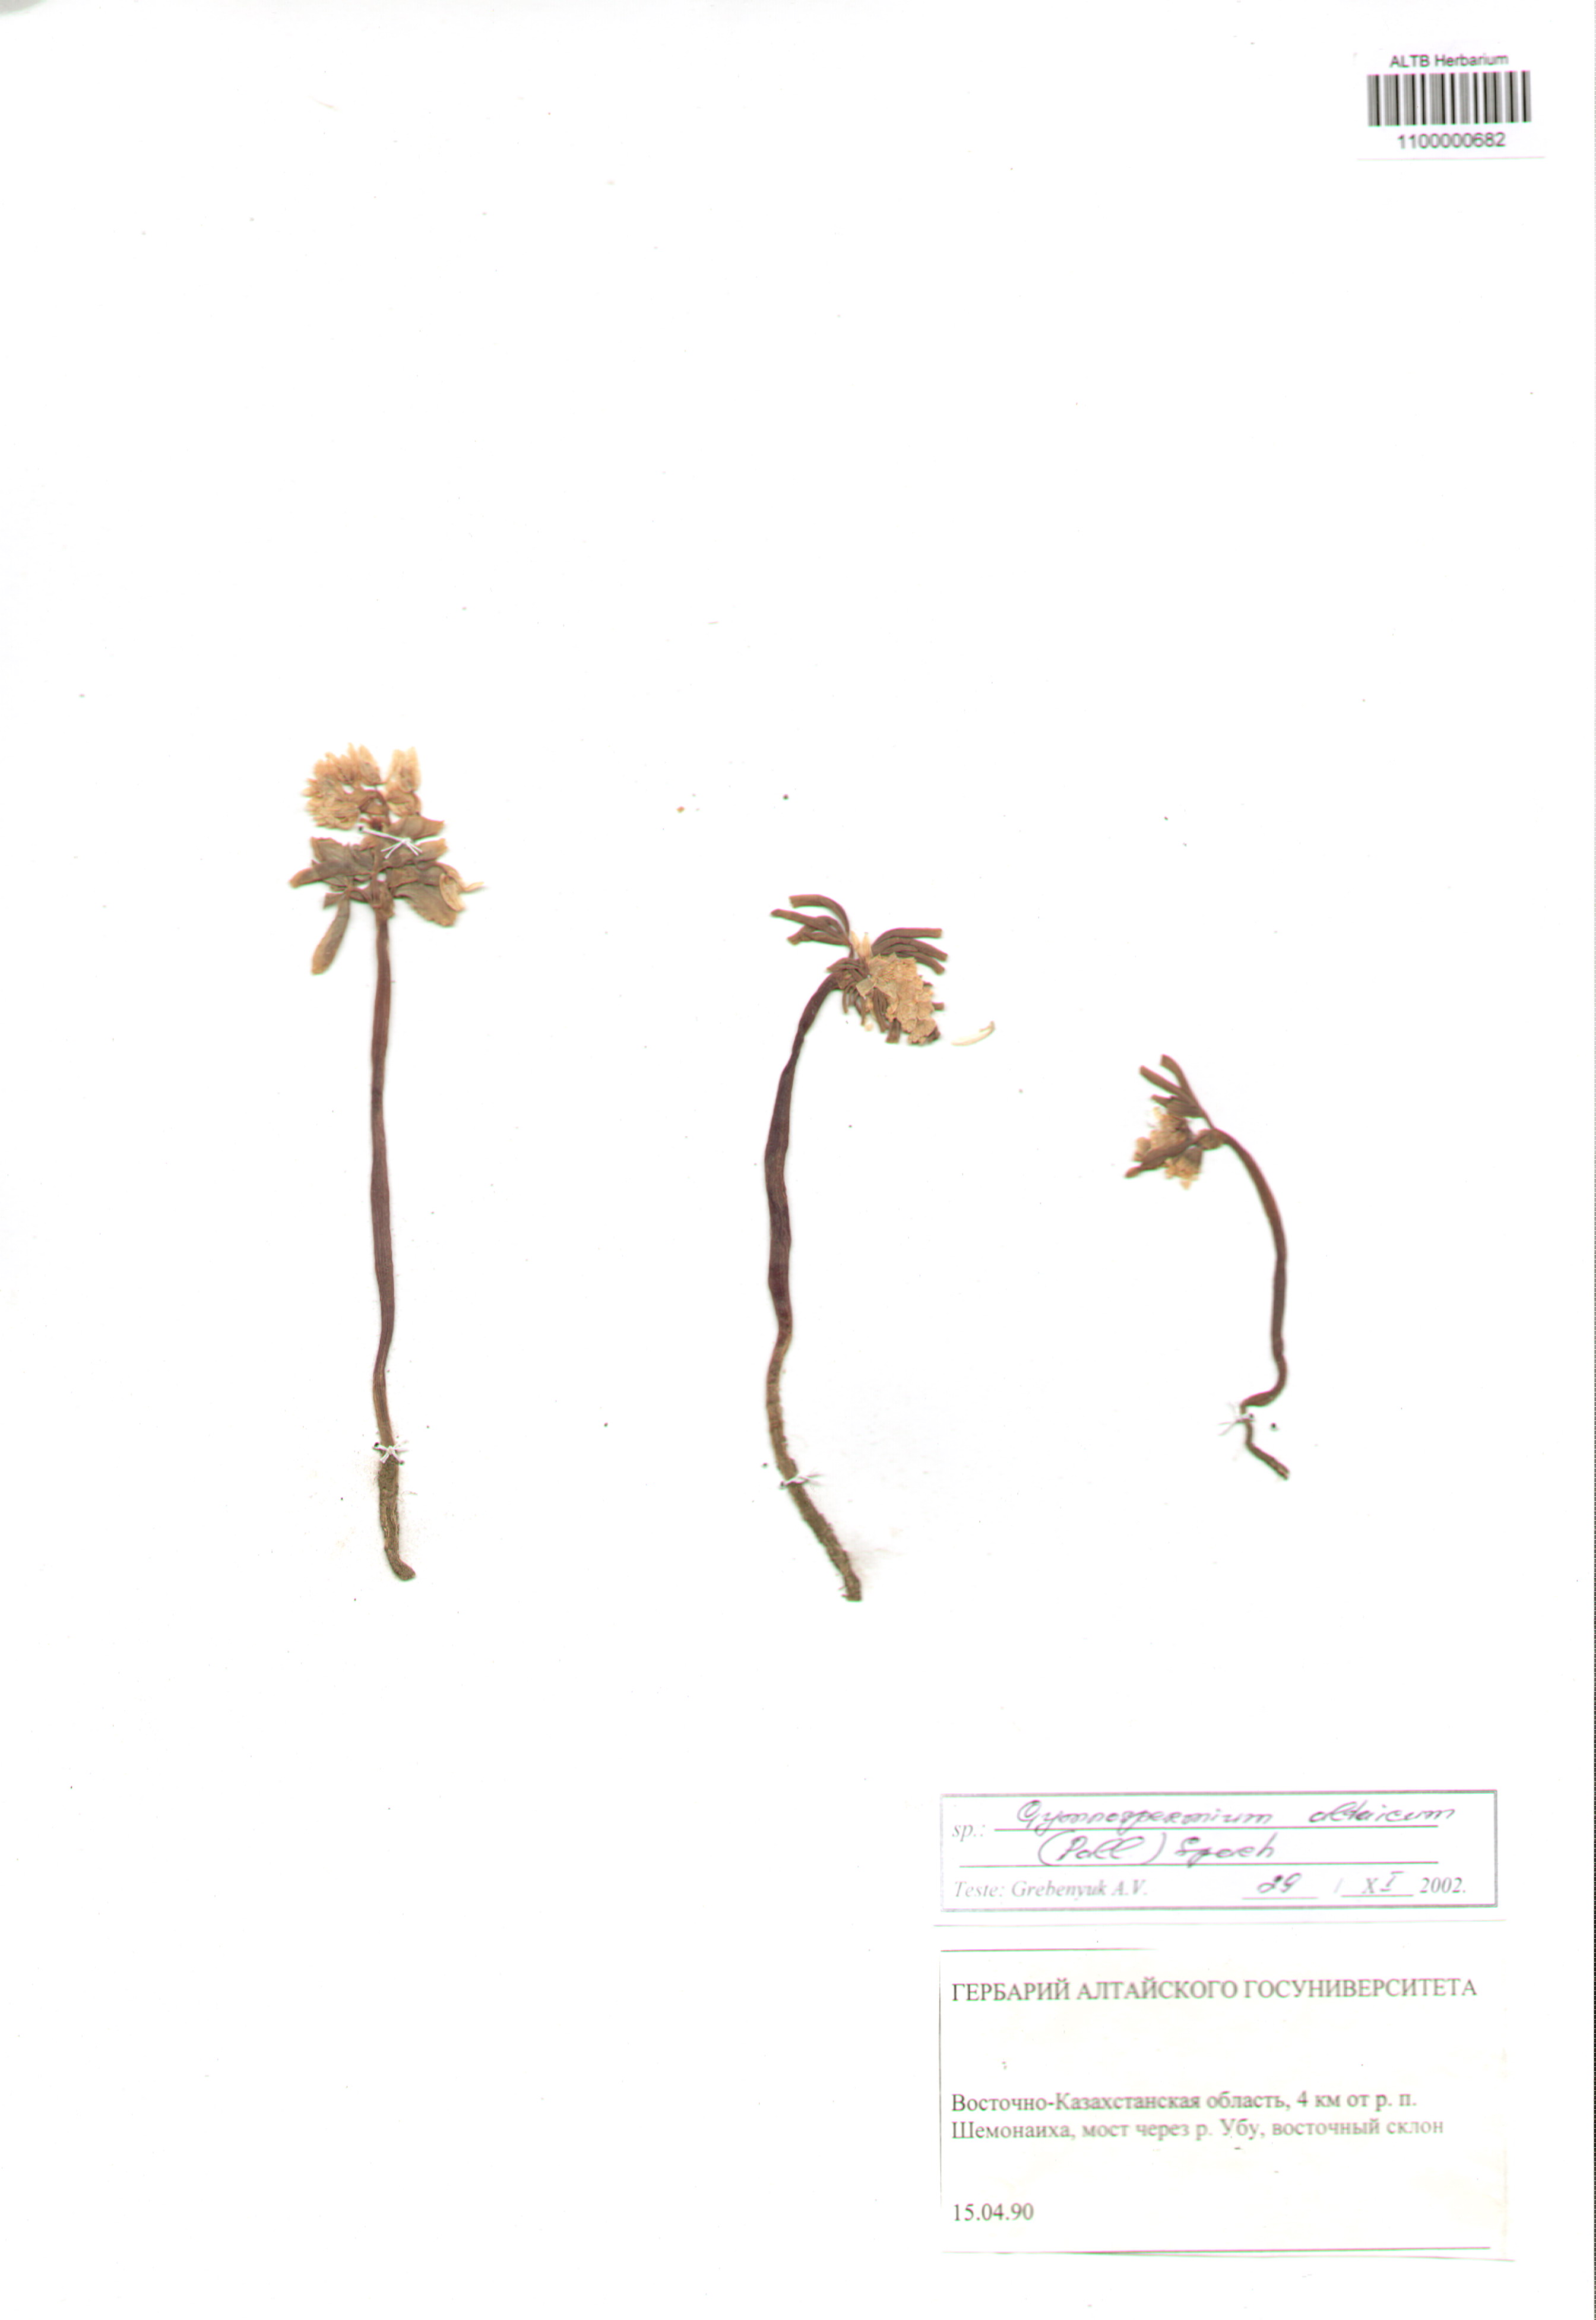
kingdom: Plantae
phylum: Tracheophyta
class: Magnoliopsida
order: Ranunculales
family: Berberidaceae
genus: Gymnospermium
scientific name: Gymnospermium altaicum
